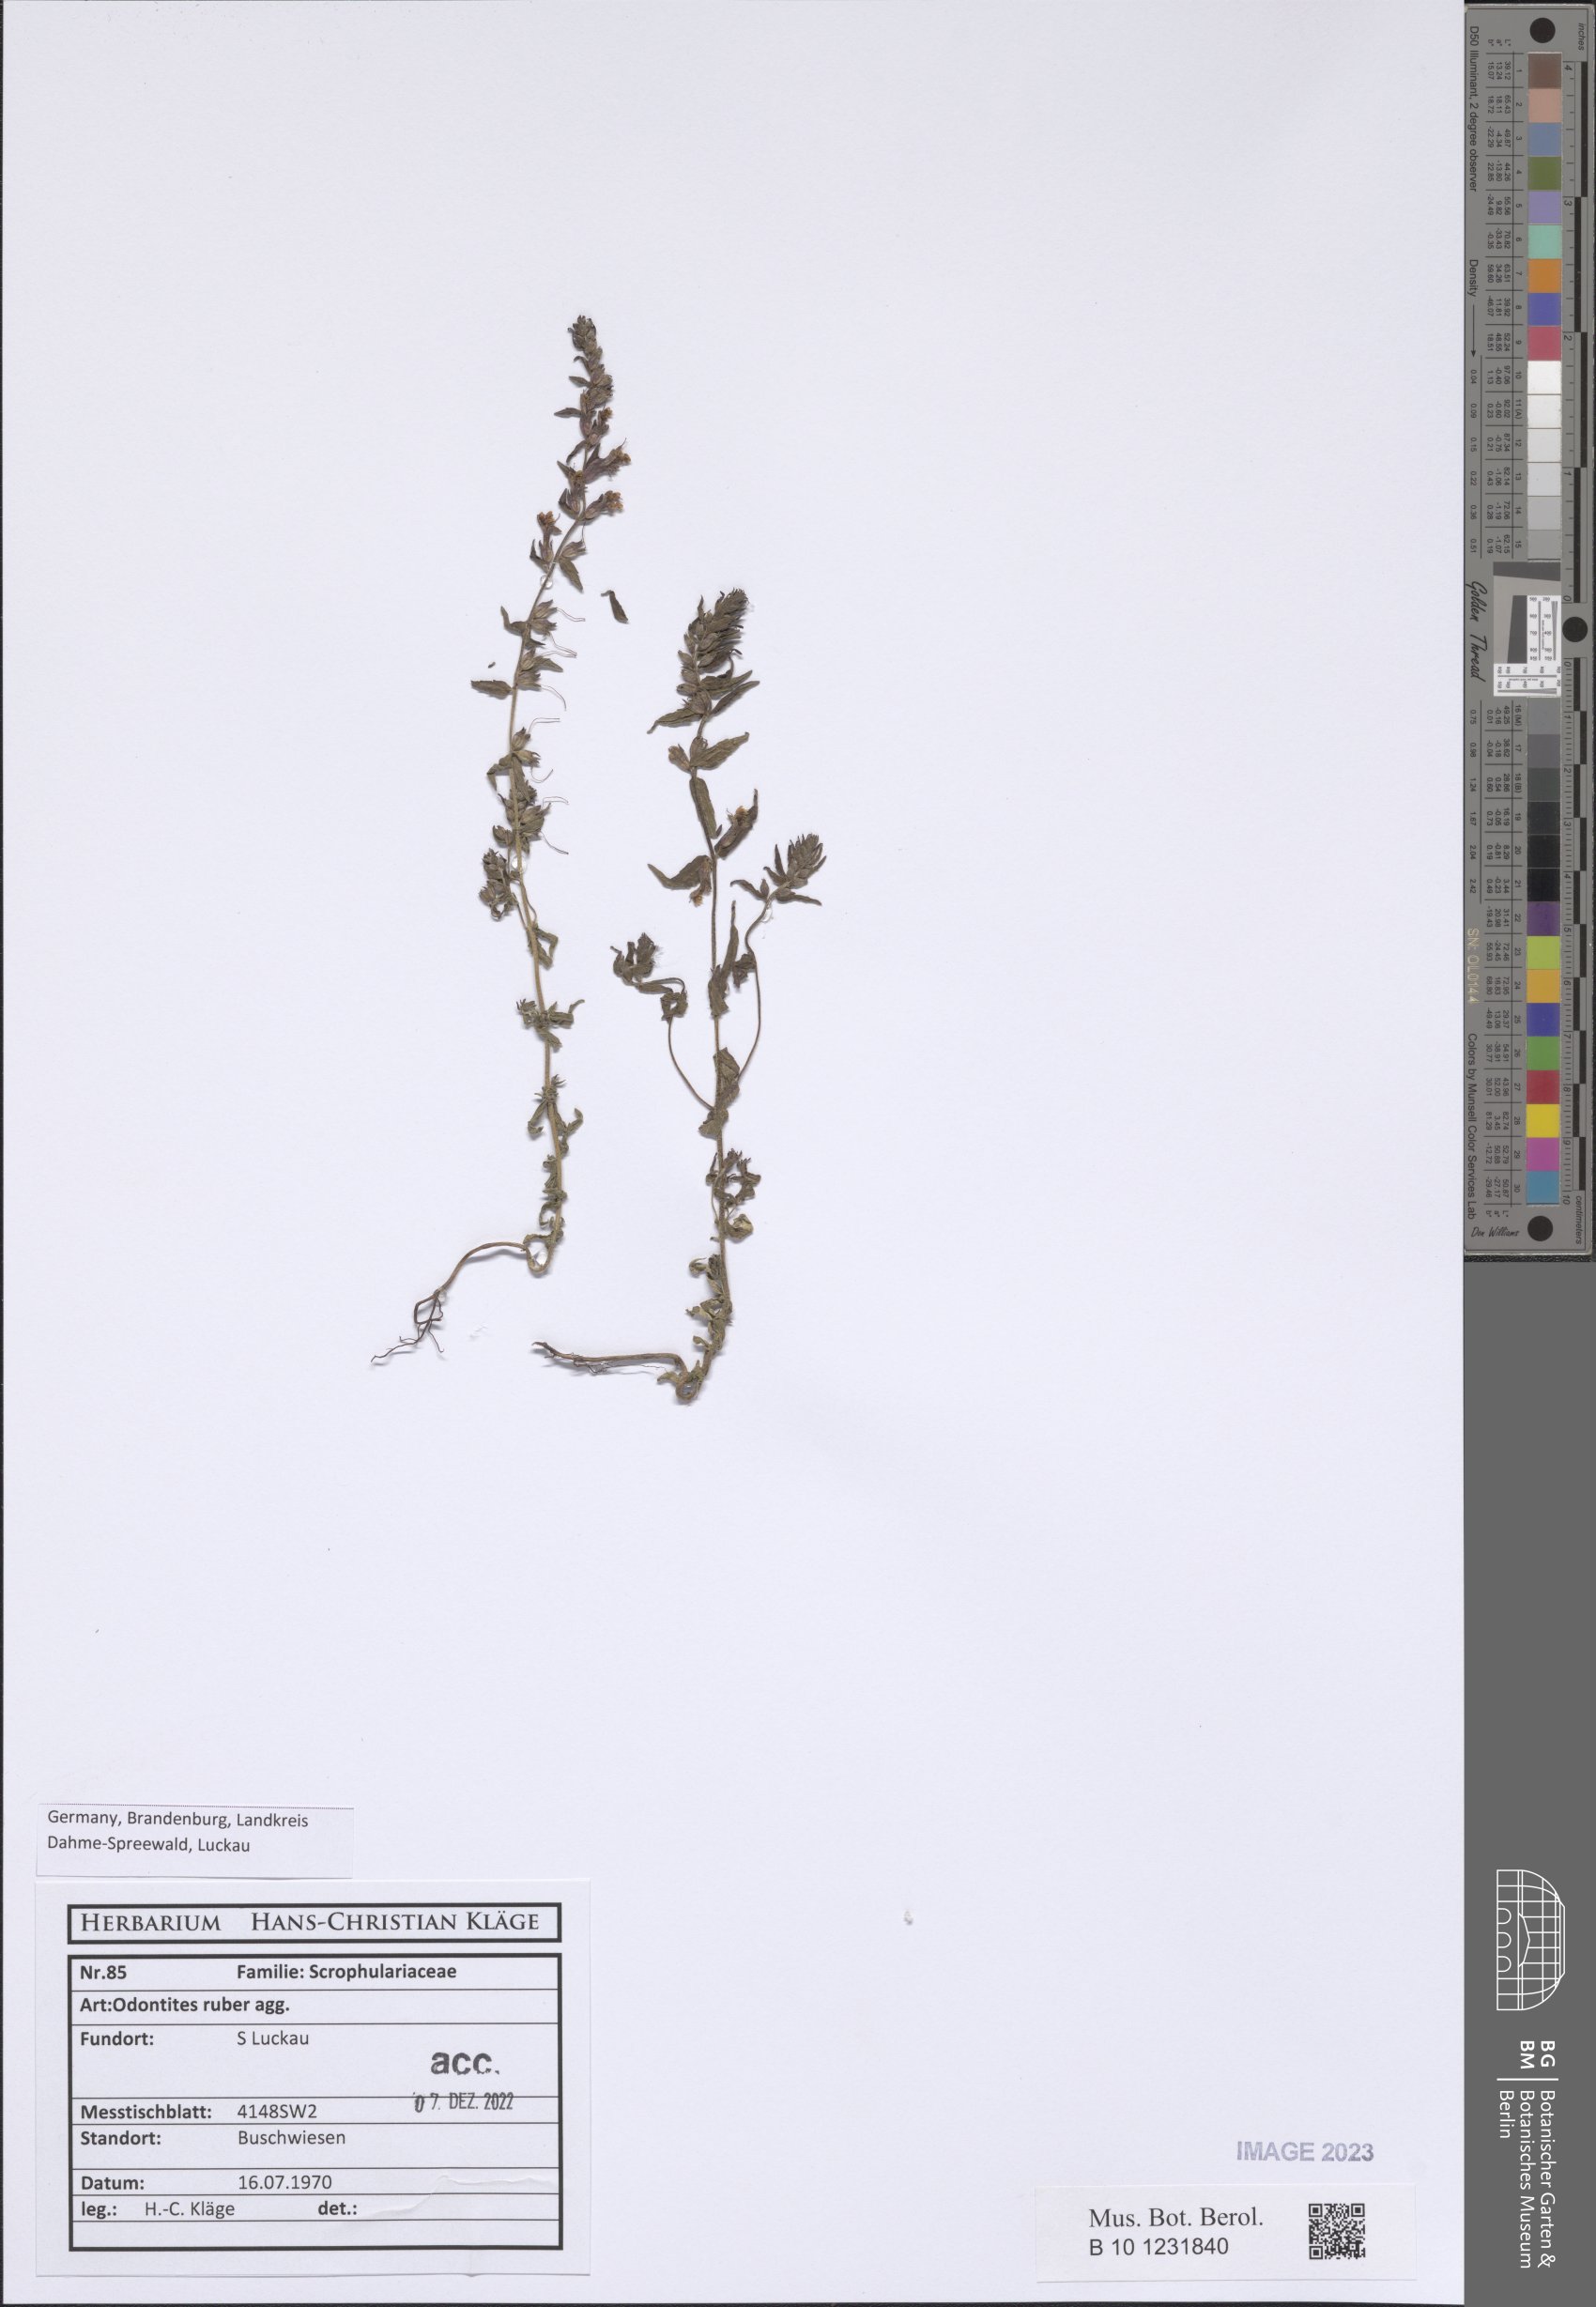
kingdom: Plantae
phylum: Tracheophyta
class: Magnoliopsida
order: Lamiales
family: Orobanchaceae
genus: Odontites
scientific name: Odontites vulgaris
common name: Broomrape
